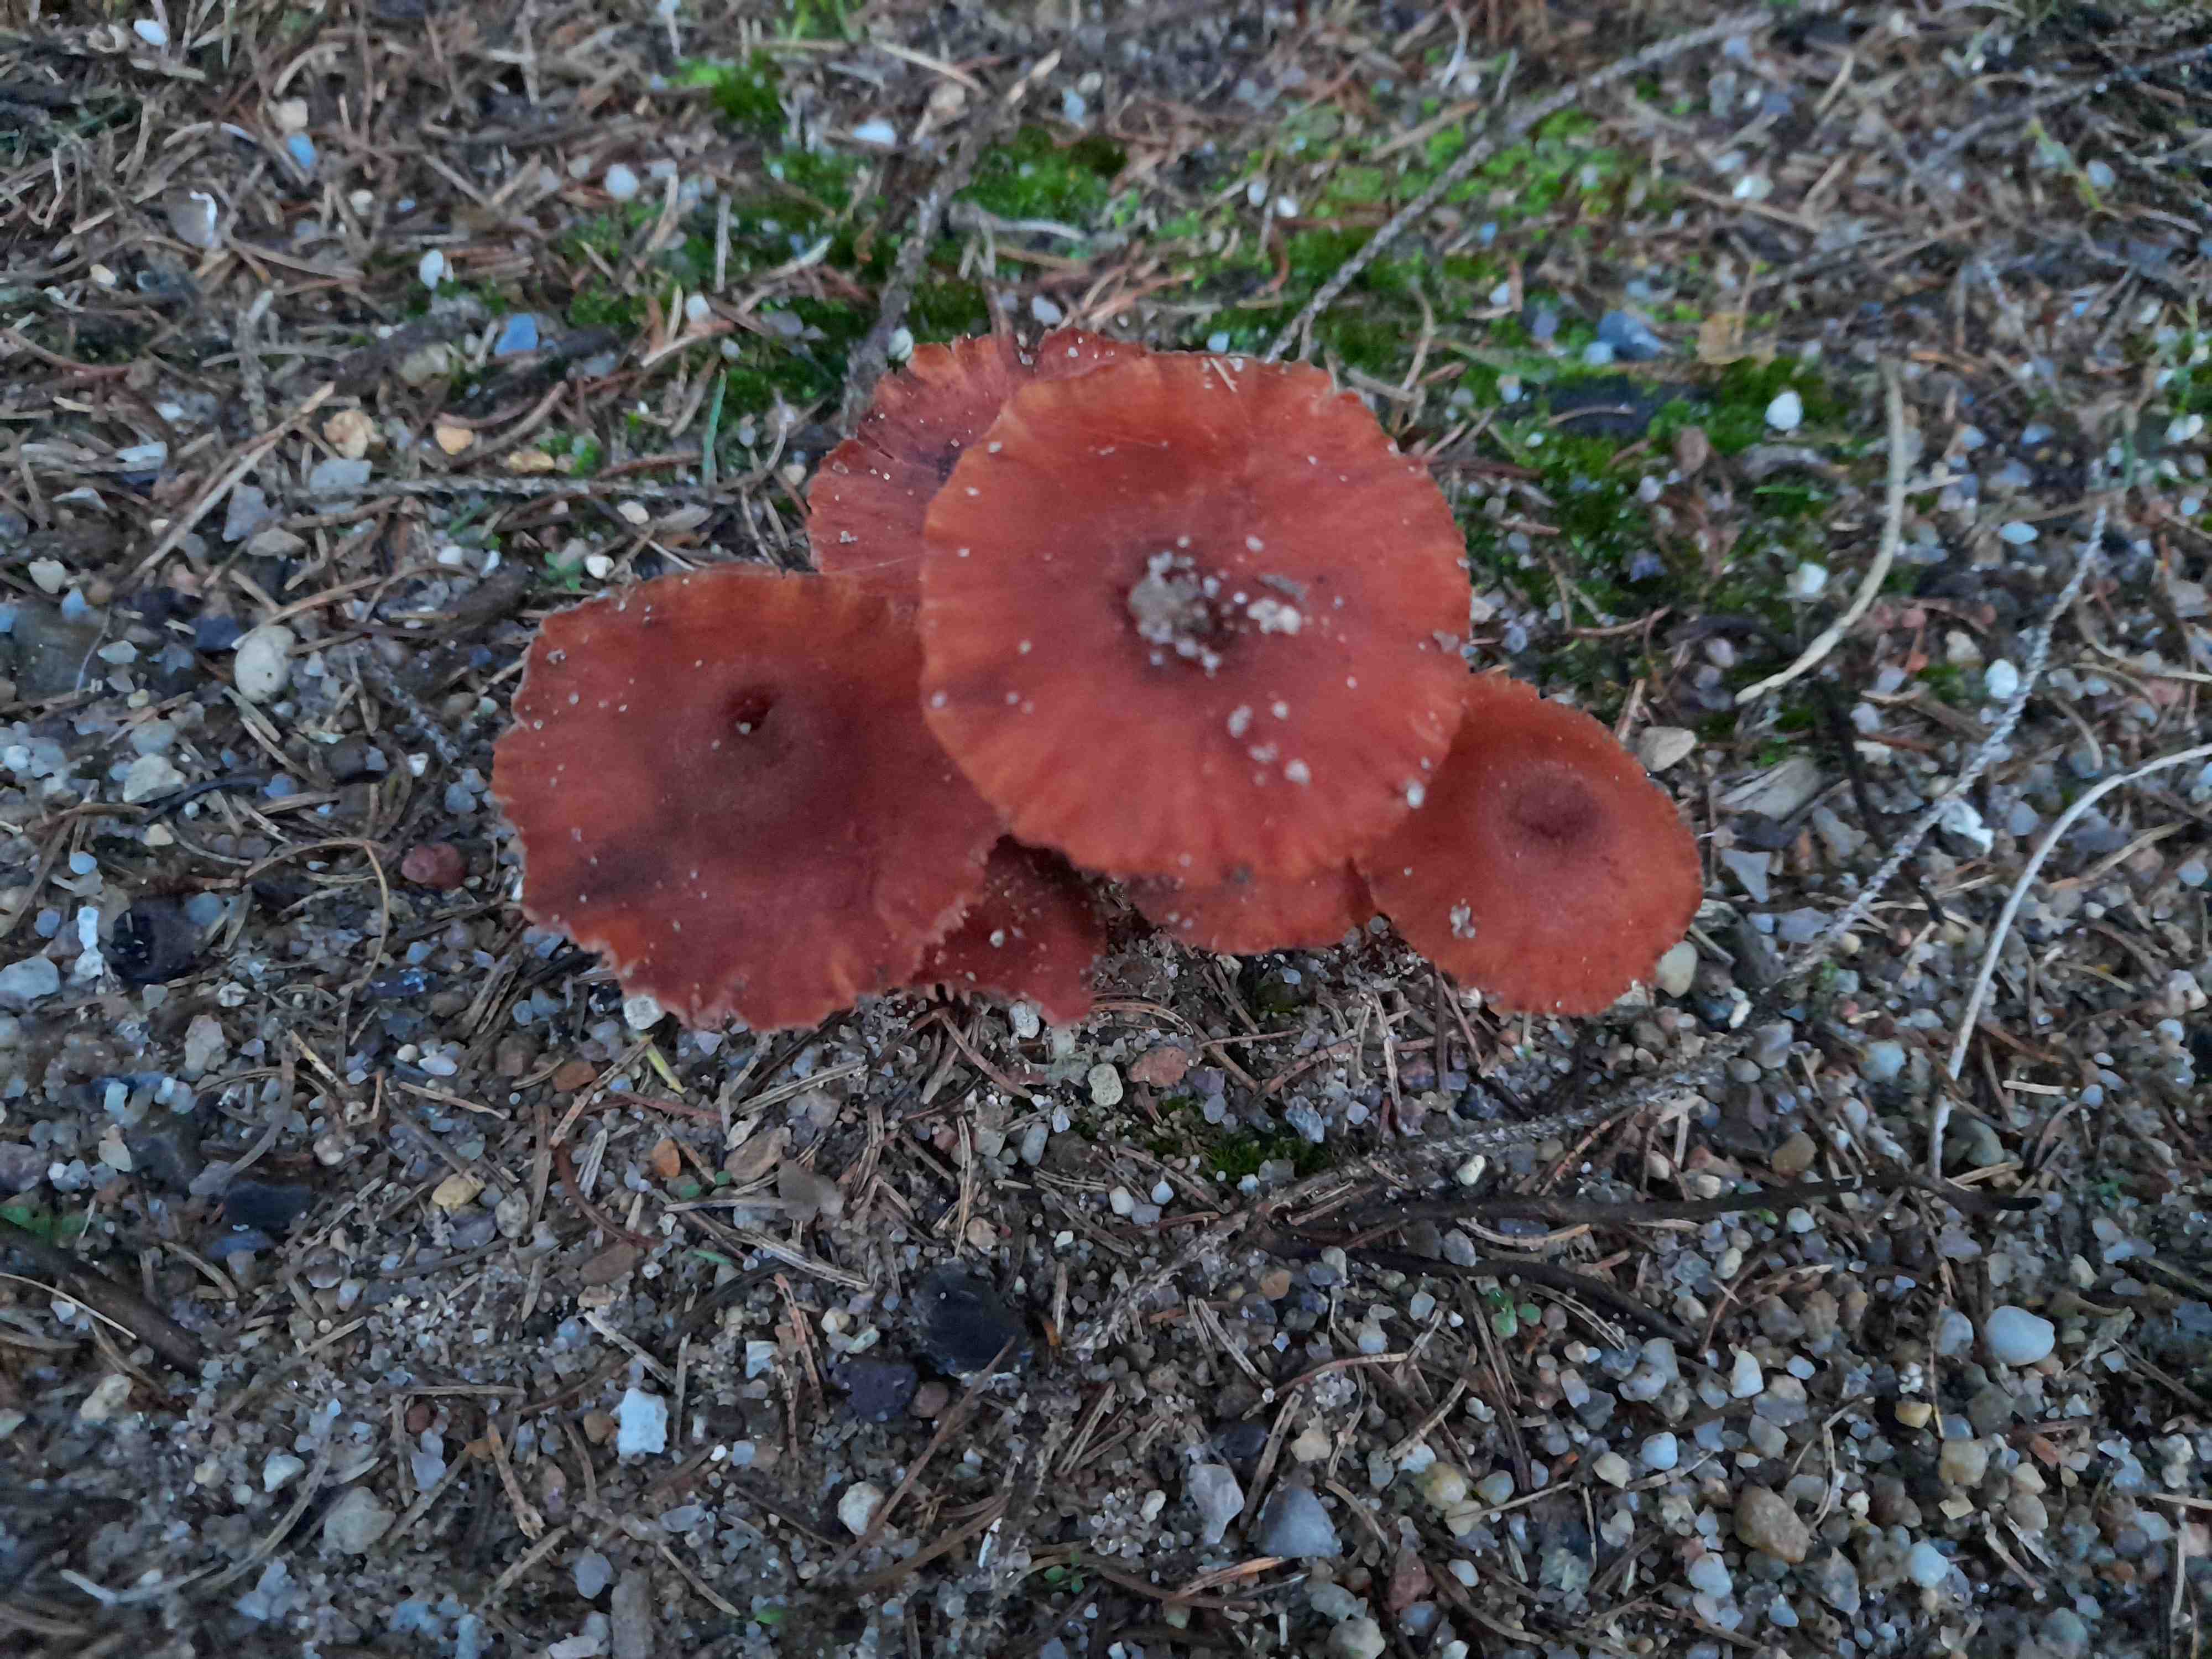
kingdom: Fungi
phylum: Basidiomycota
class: Agaricomycetes
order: Agaricales
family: Hydnangiaceae
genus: Laccaria
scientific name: Laccaria
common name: ametysthat
